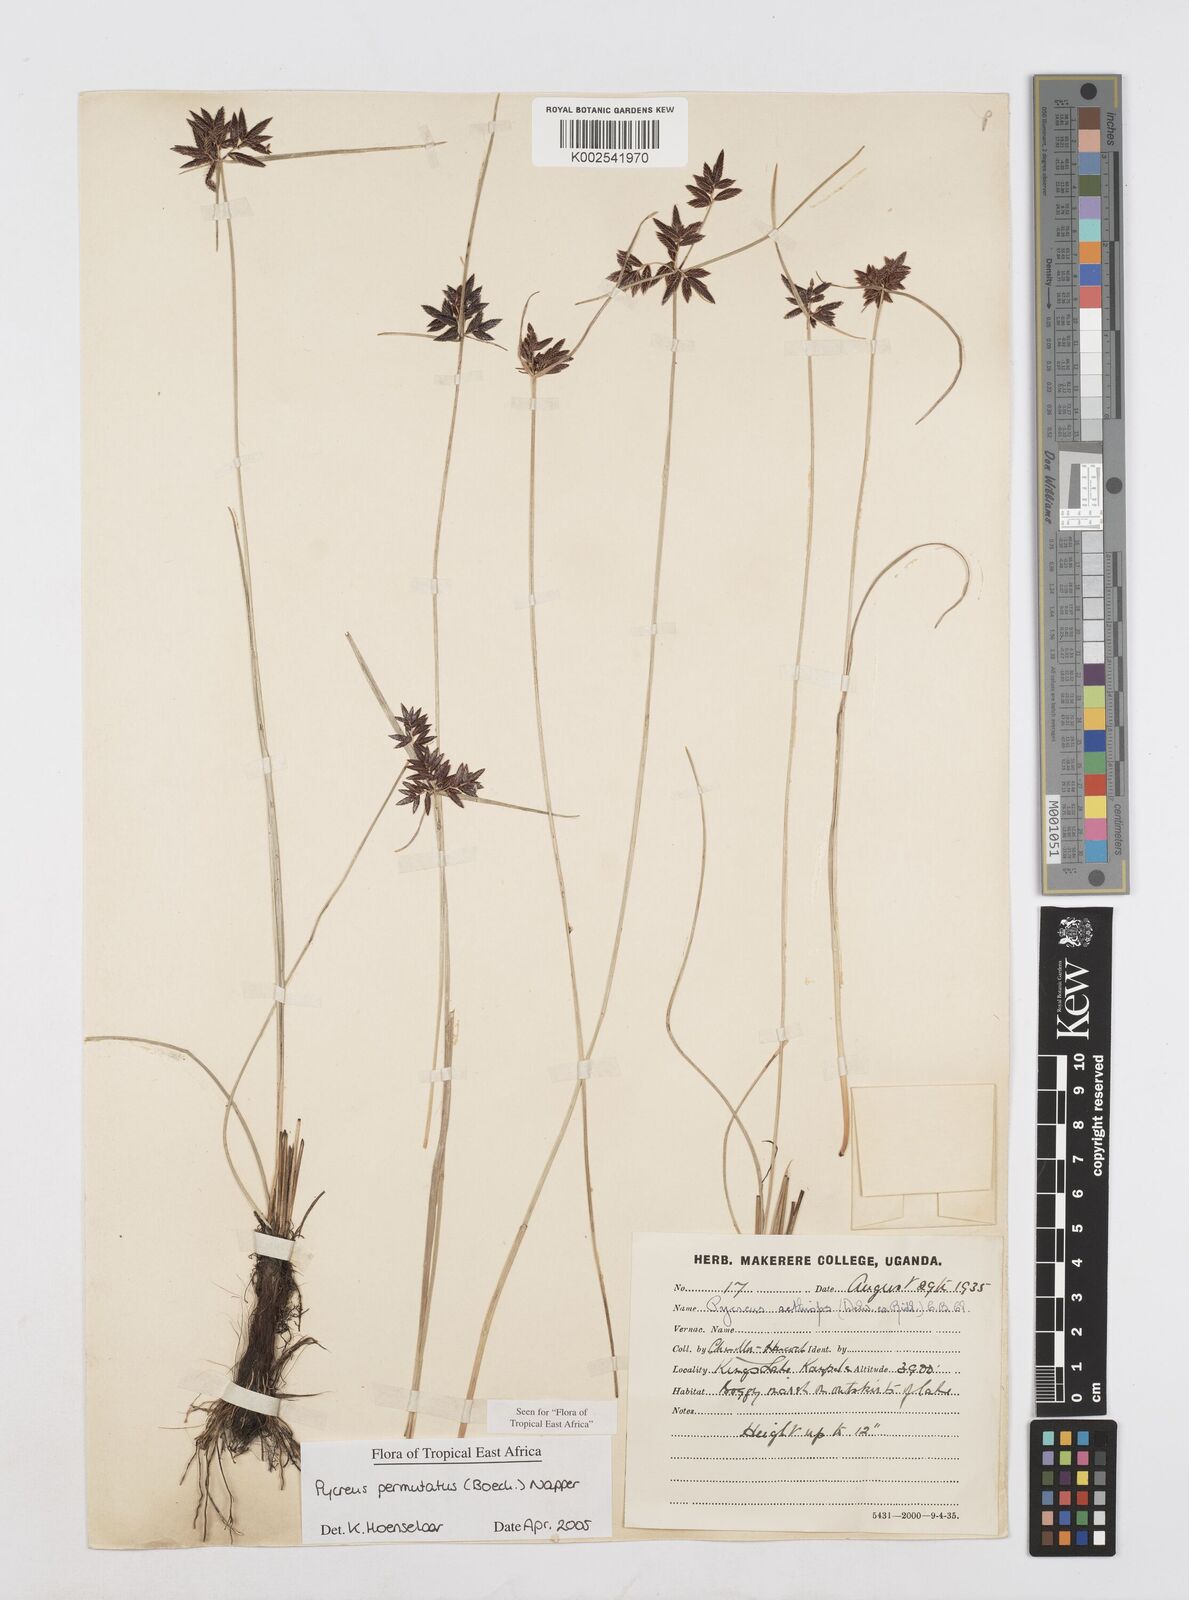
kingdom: Plantae
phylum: Tracheophyta
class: Liliopsida
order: Poales
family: Cyperaceae
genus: Cyperus
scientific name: Cyperus nigricans
